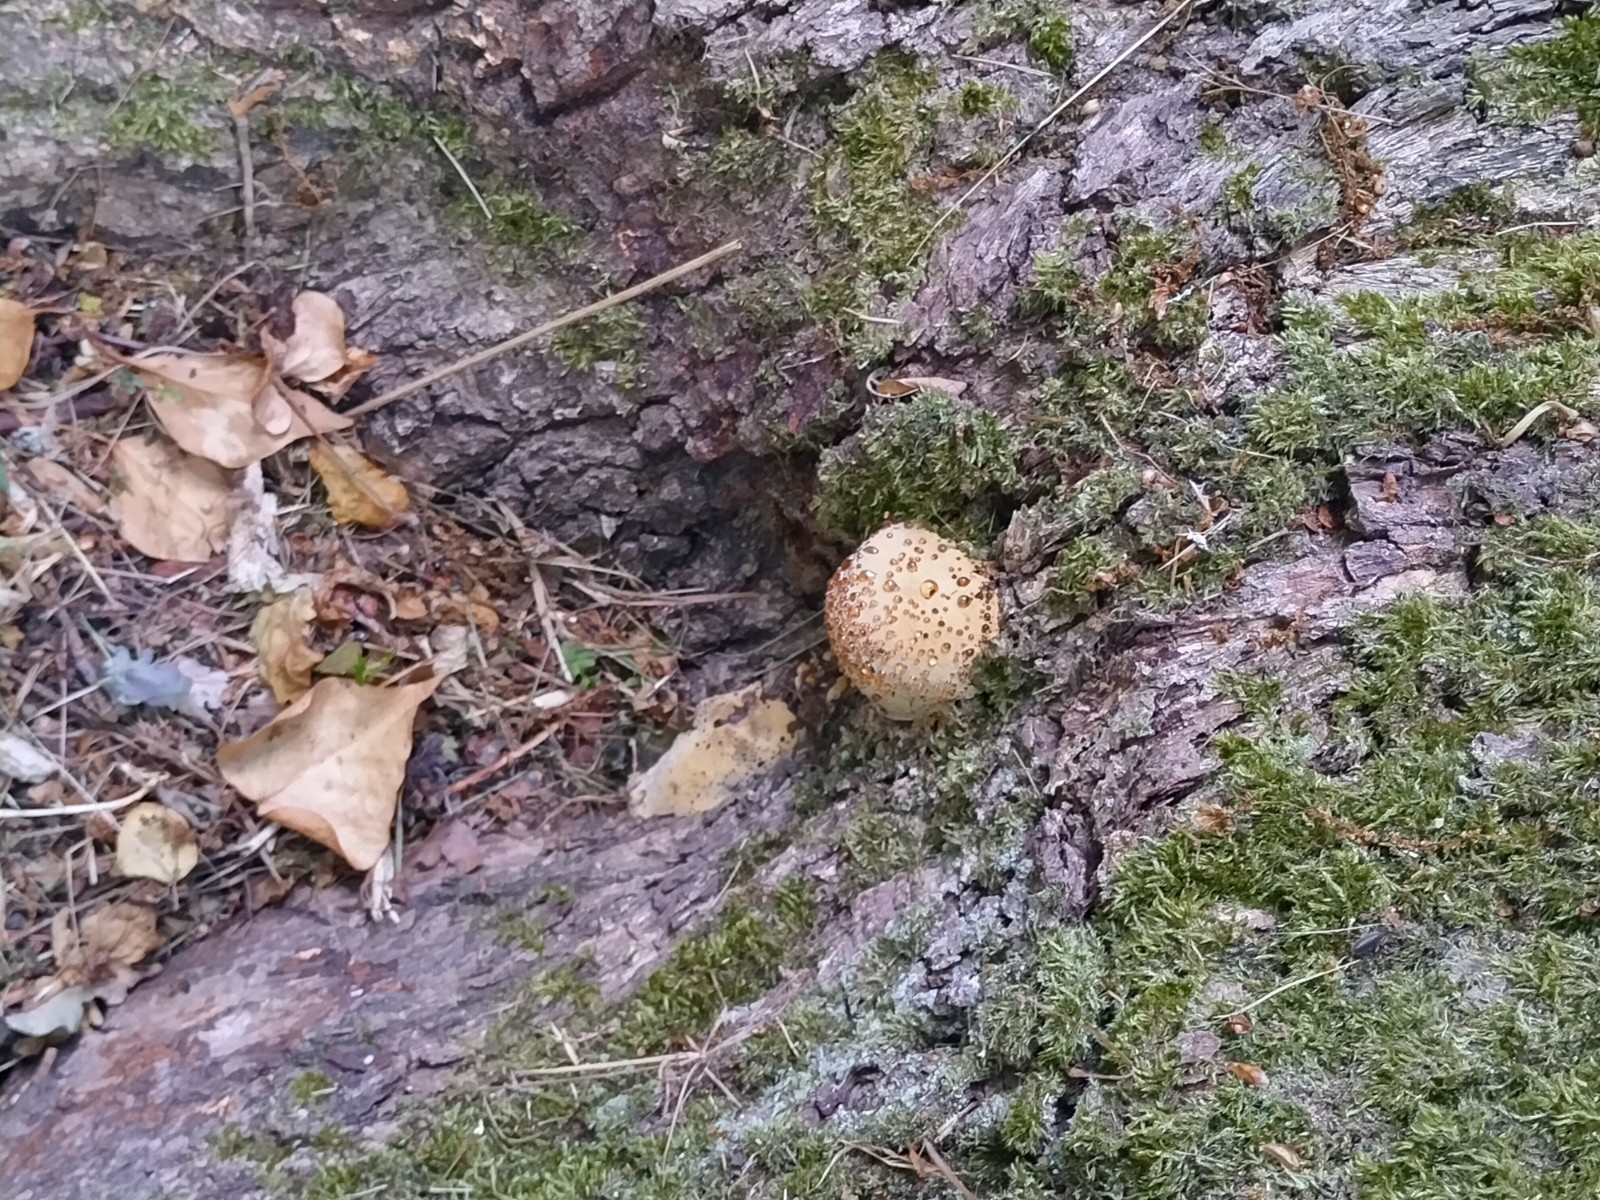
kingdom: Fungi
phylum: Basidiomycota
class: Agaricomycetes
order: Hymenochaetales
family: Hymenochaetaceae
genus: Pseudoinonotus
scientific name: Pseudoinonotus dryadeus
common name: ege-spejlporesvamp
